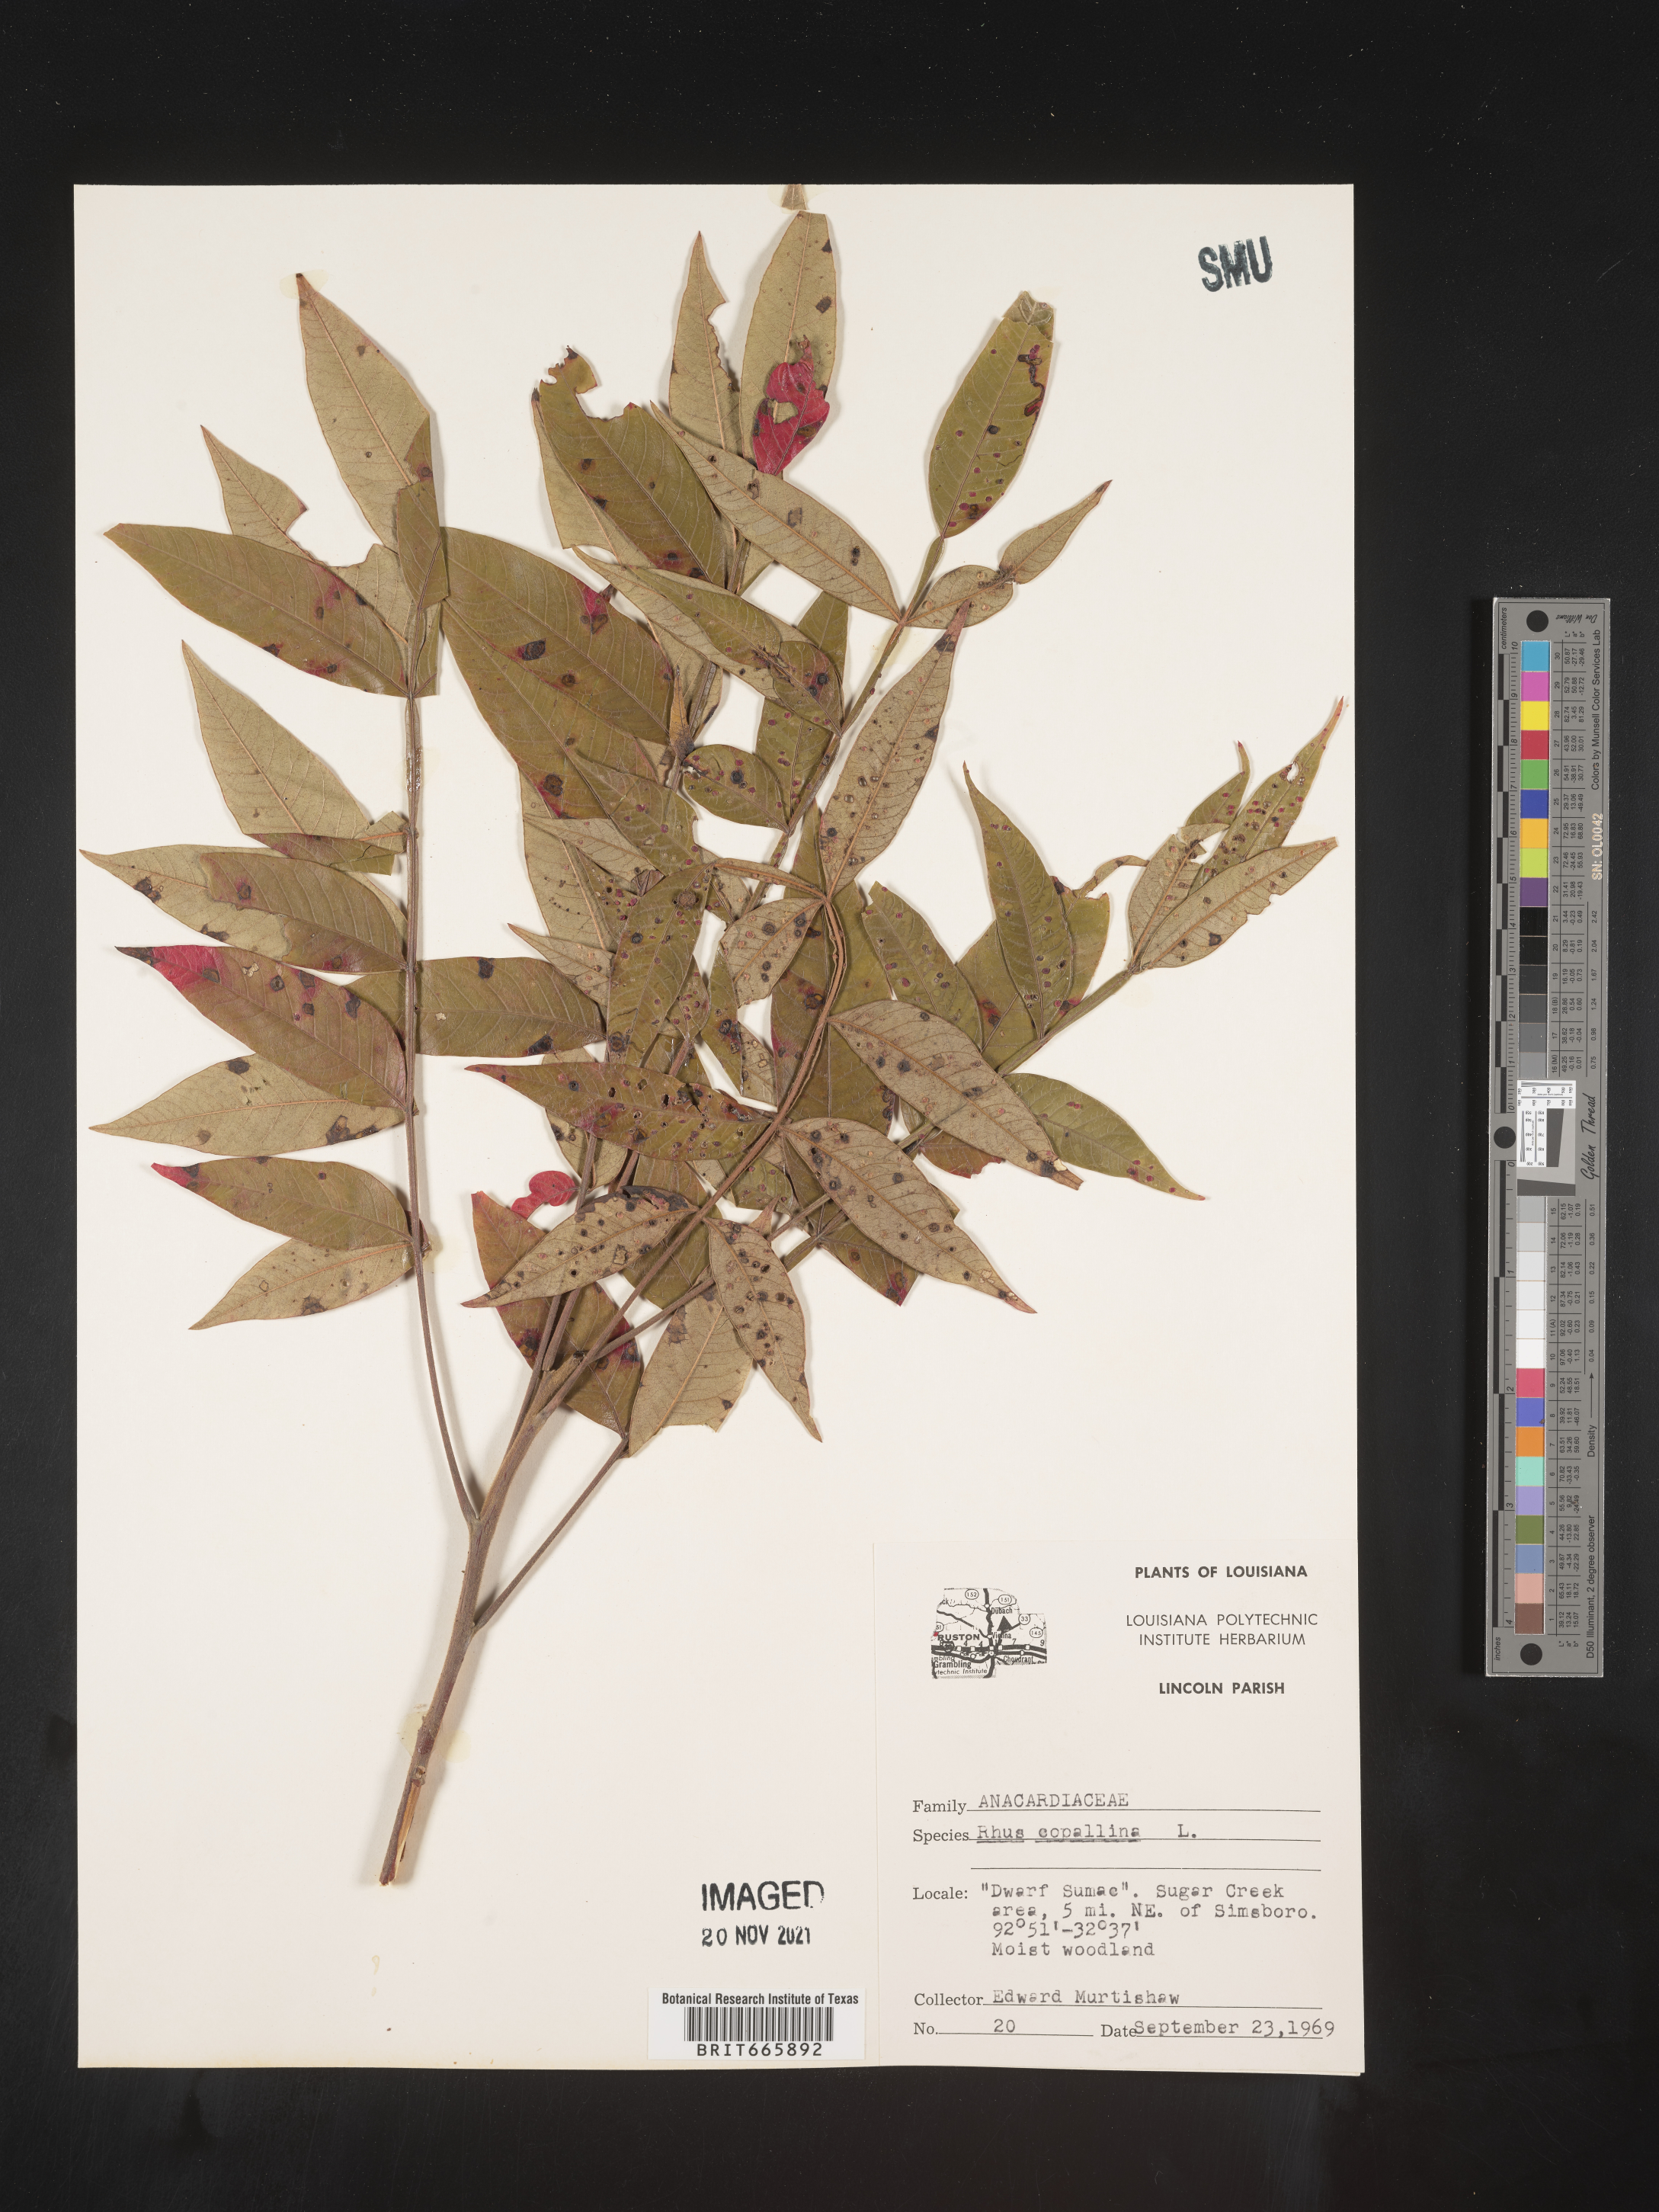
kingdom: Plantae
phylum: Tracheophyta
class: Magnoliopsida
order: Sapindales
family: Anacardiaceae
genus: Rhus
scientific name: Rhus copallina
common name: Shining sumac
